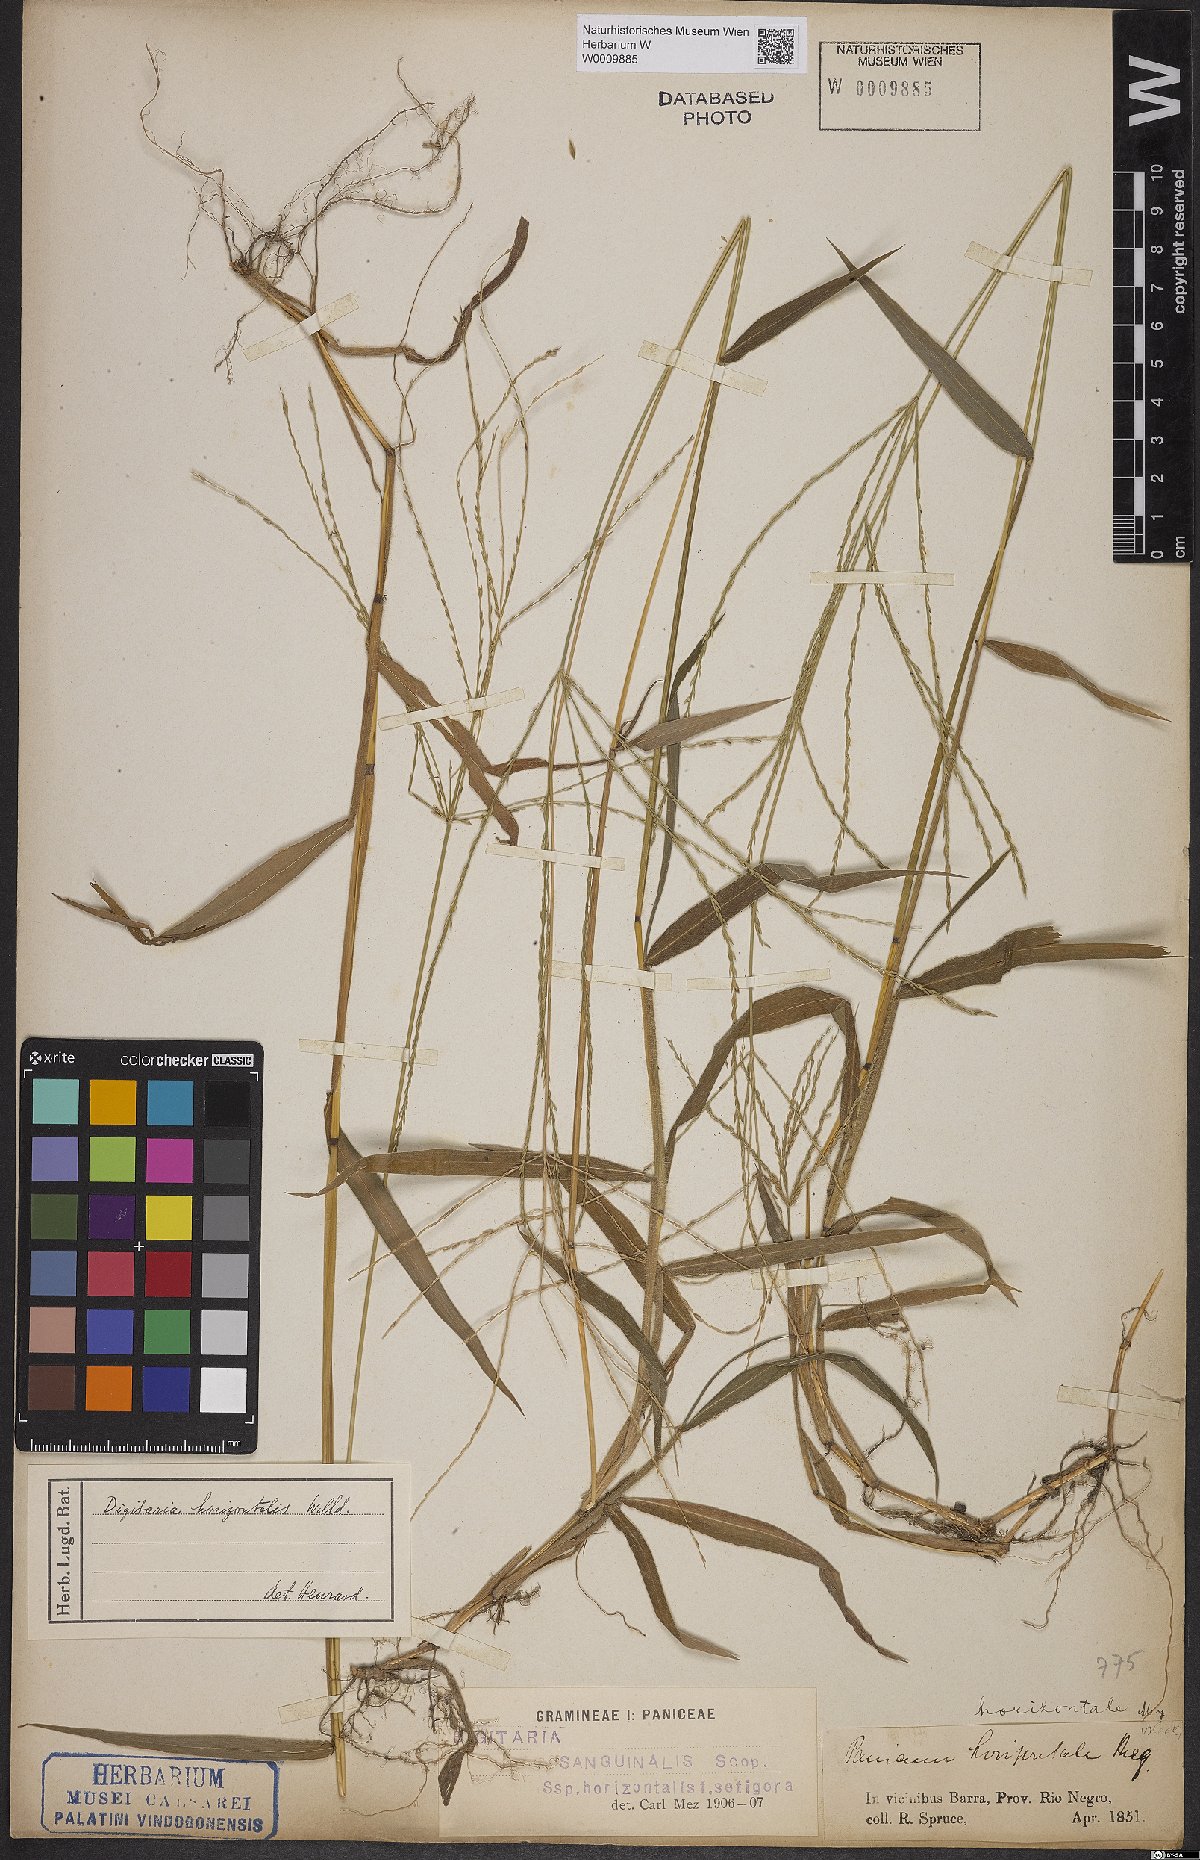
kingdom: Plantae
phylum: Tracheophyta
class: Liliopsida
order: Poales
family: Poaceae
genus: Digitaria
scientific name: Digitaria horizontalis
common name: Jamaican crabgrass
